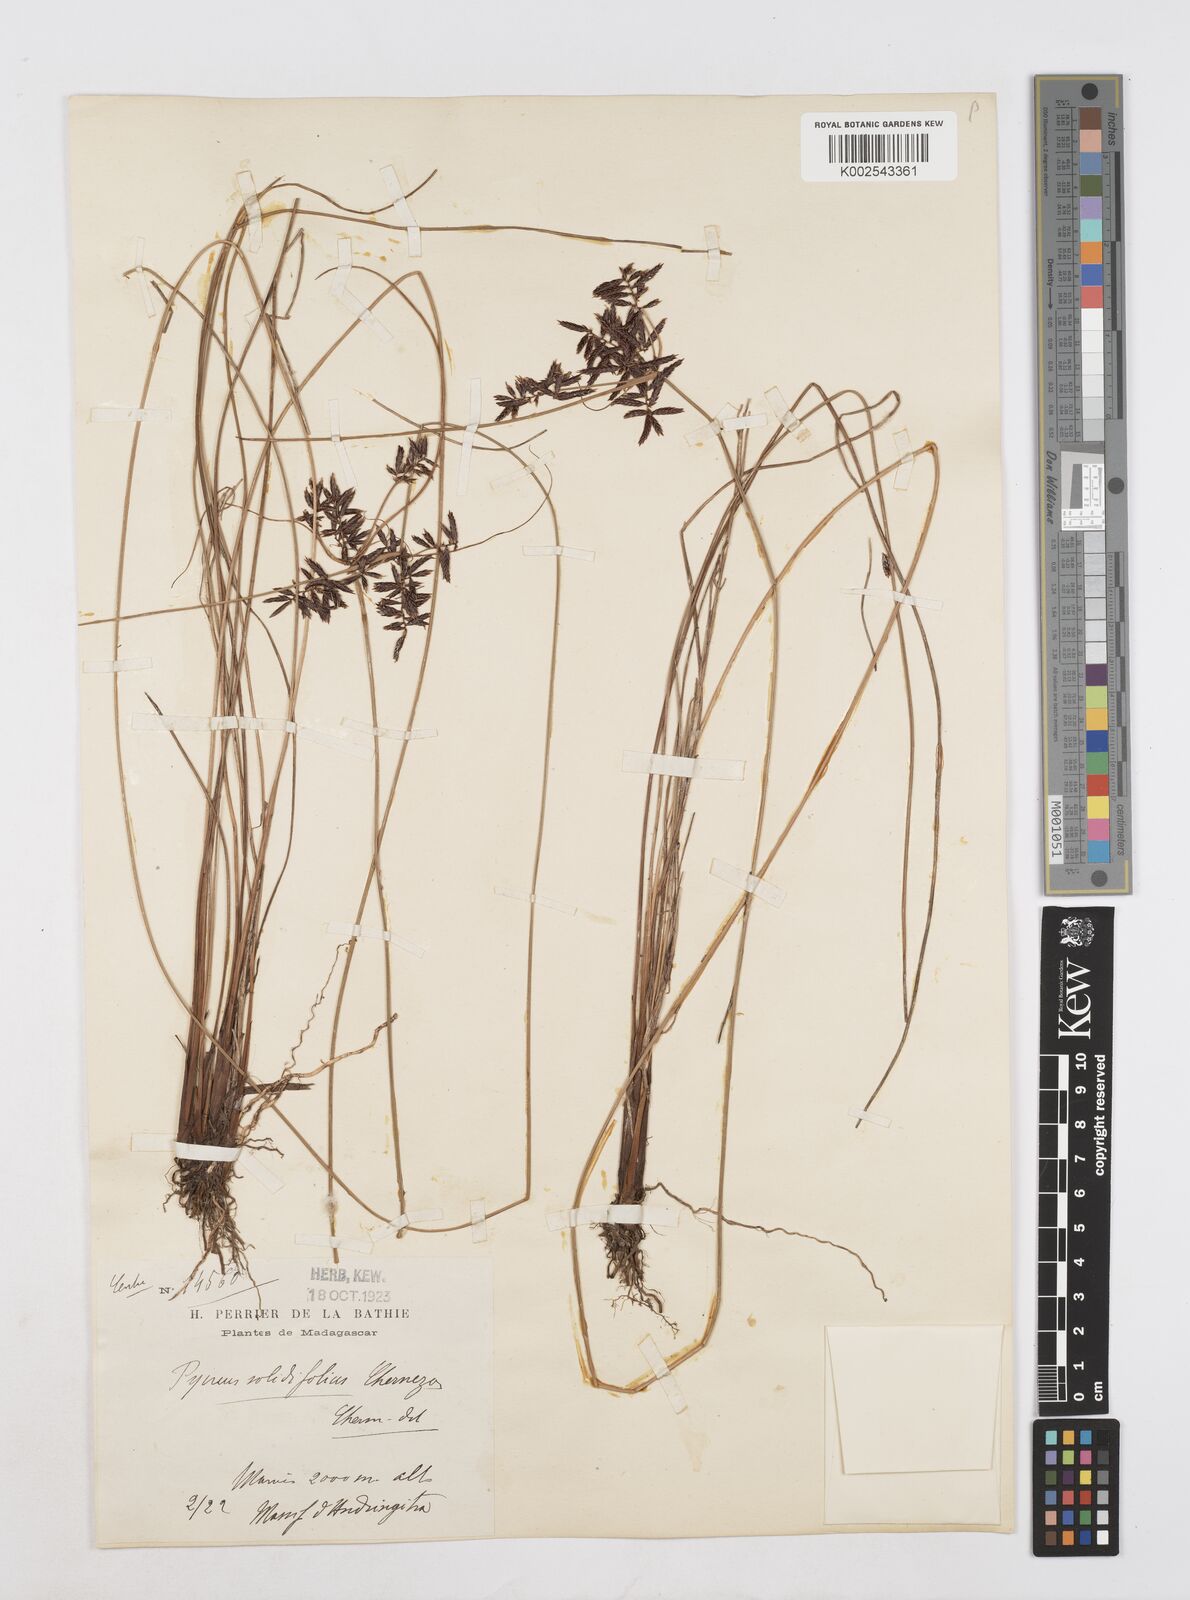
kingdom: Plantae
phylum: Tracheophyta
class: Liliopsida
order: Poales
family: Cyperaceae
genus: Cyperus
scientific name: Cyperus longivaginans
